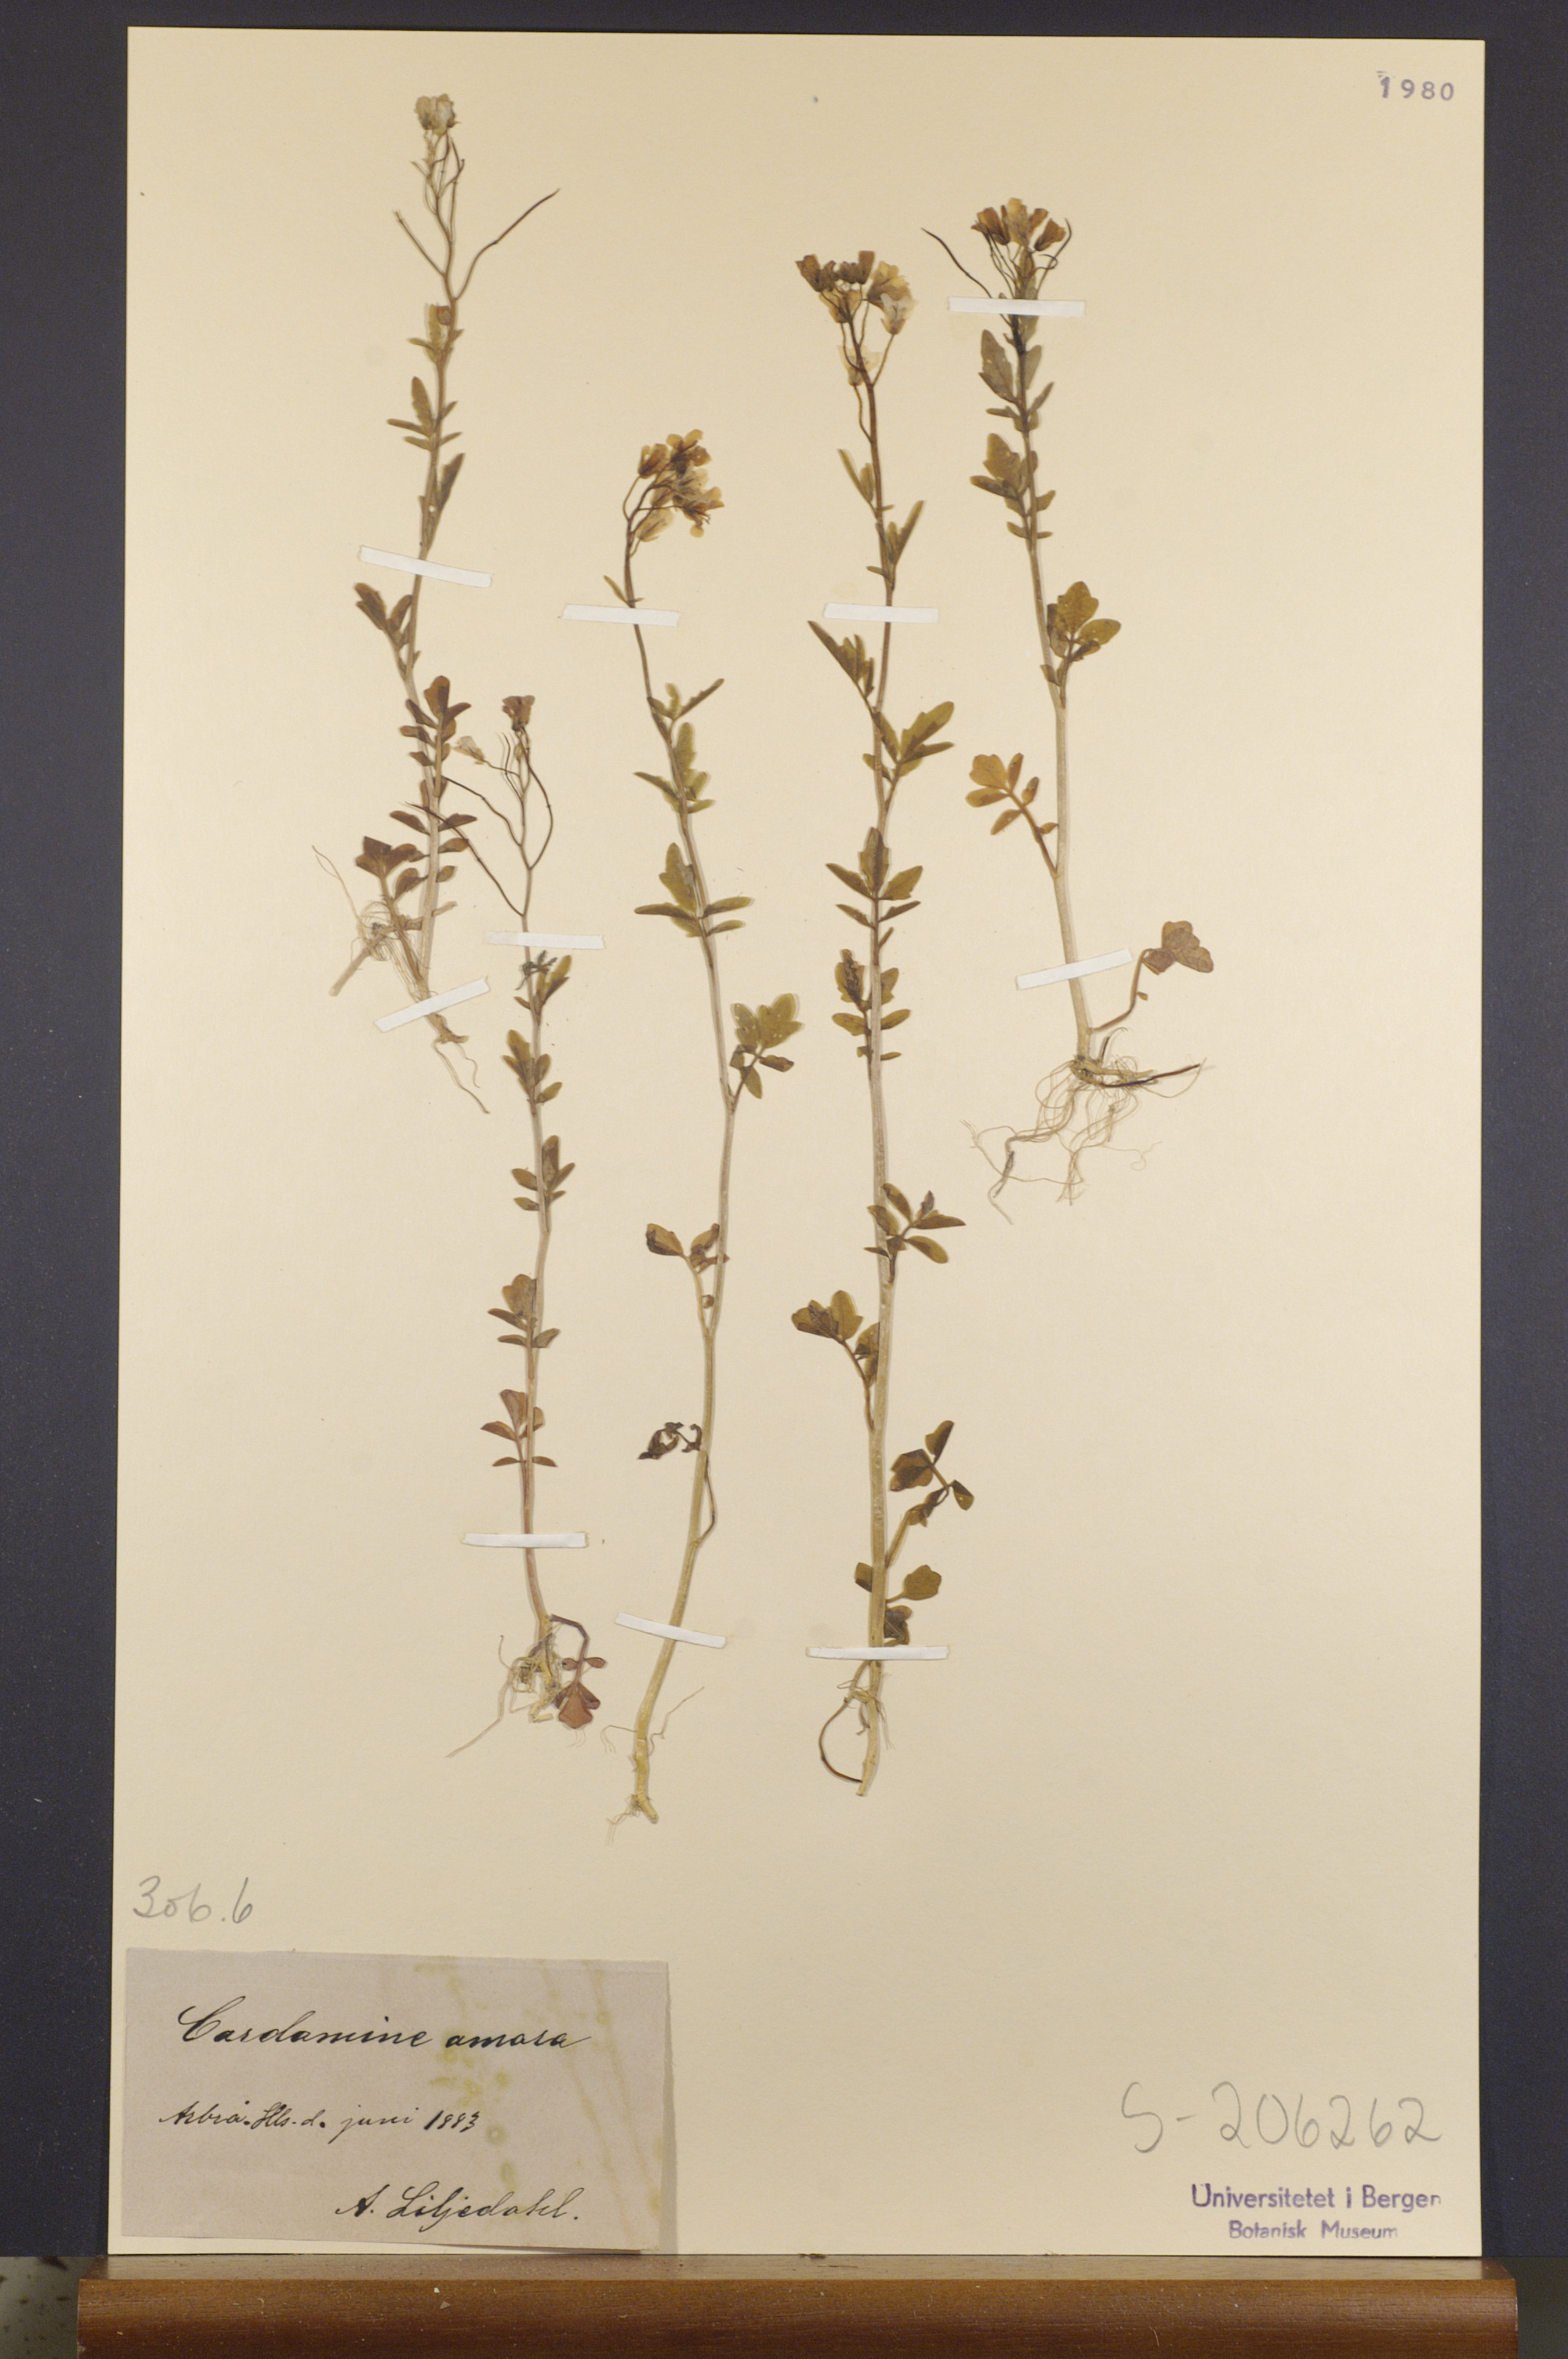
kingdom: Plantae
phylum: Tracheophyta
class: Magnoliopsida
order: Brassicales
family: Brassicaceae
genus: Cardamine
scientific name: Cardamine amara
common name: Large bitter-cress
